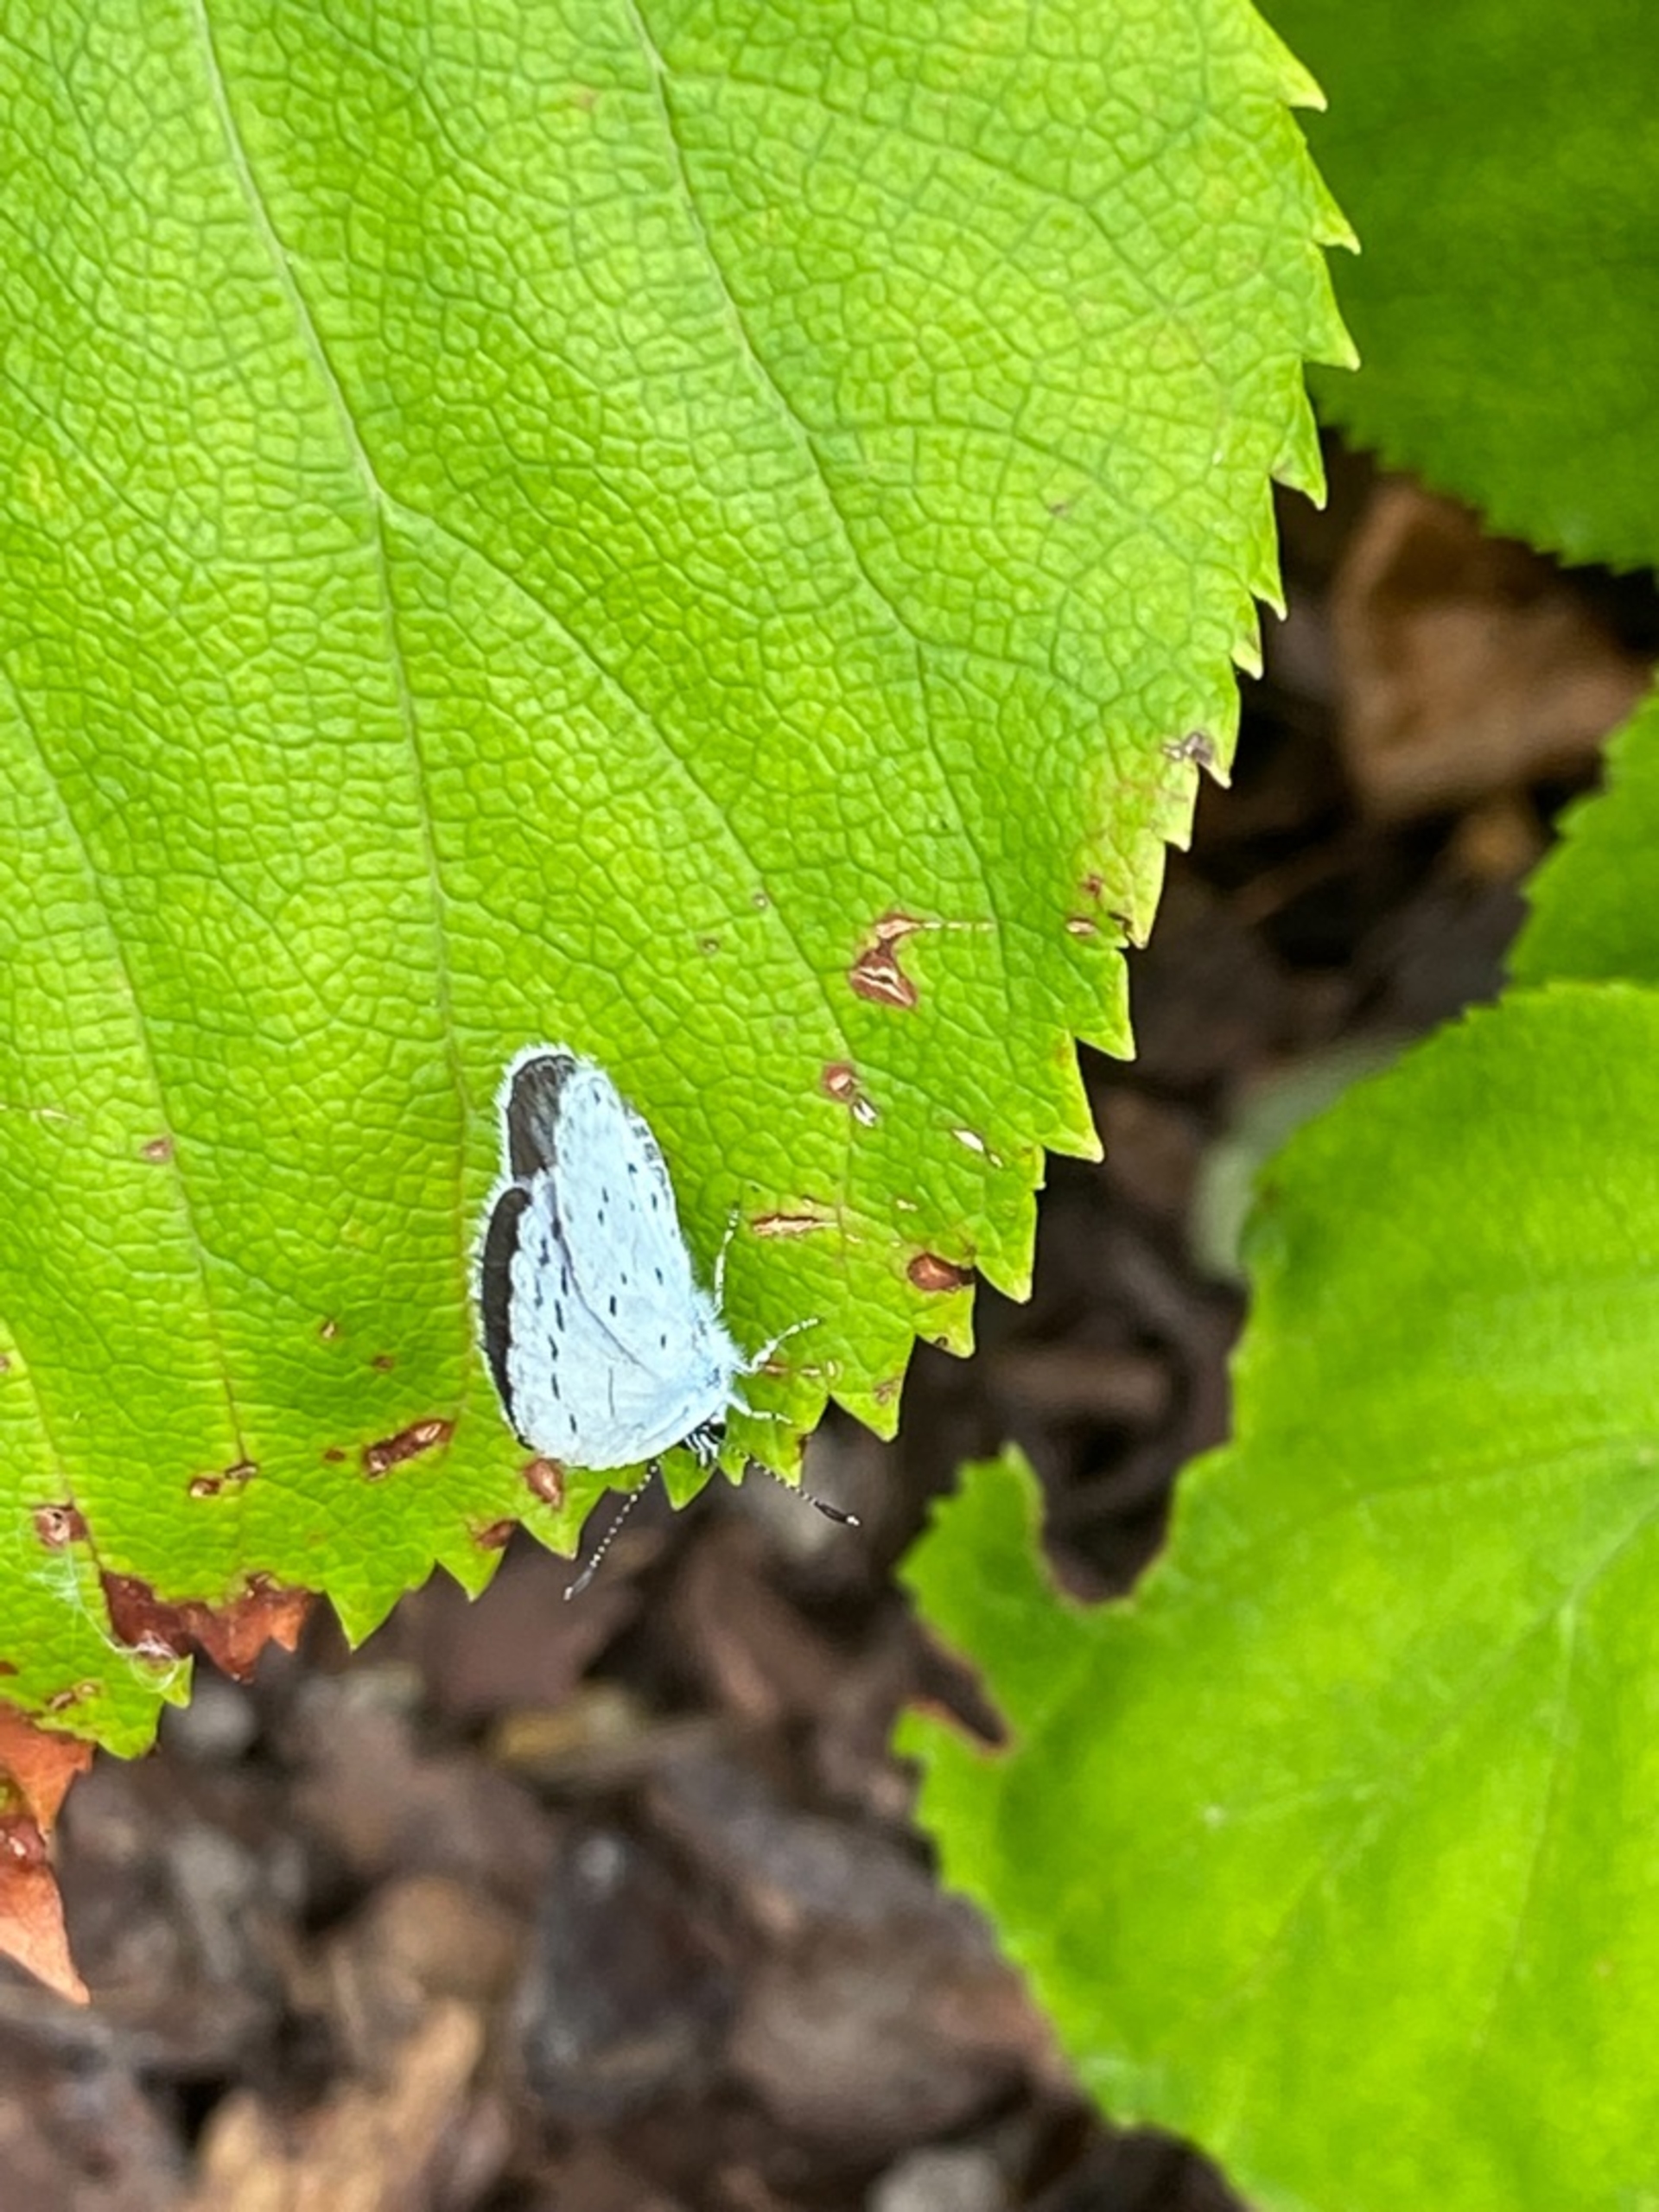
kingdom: Animalia
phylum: Arthropoda
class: Insecta
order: Lepidoptera
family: Lycaenidae
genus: Celastrina
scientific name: Celastrina argiolus
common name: Skovblåfugl
